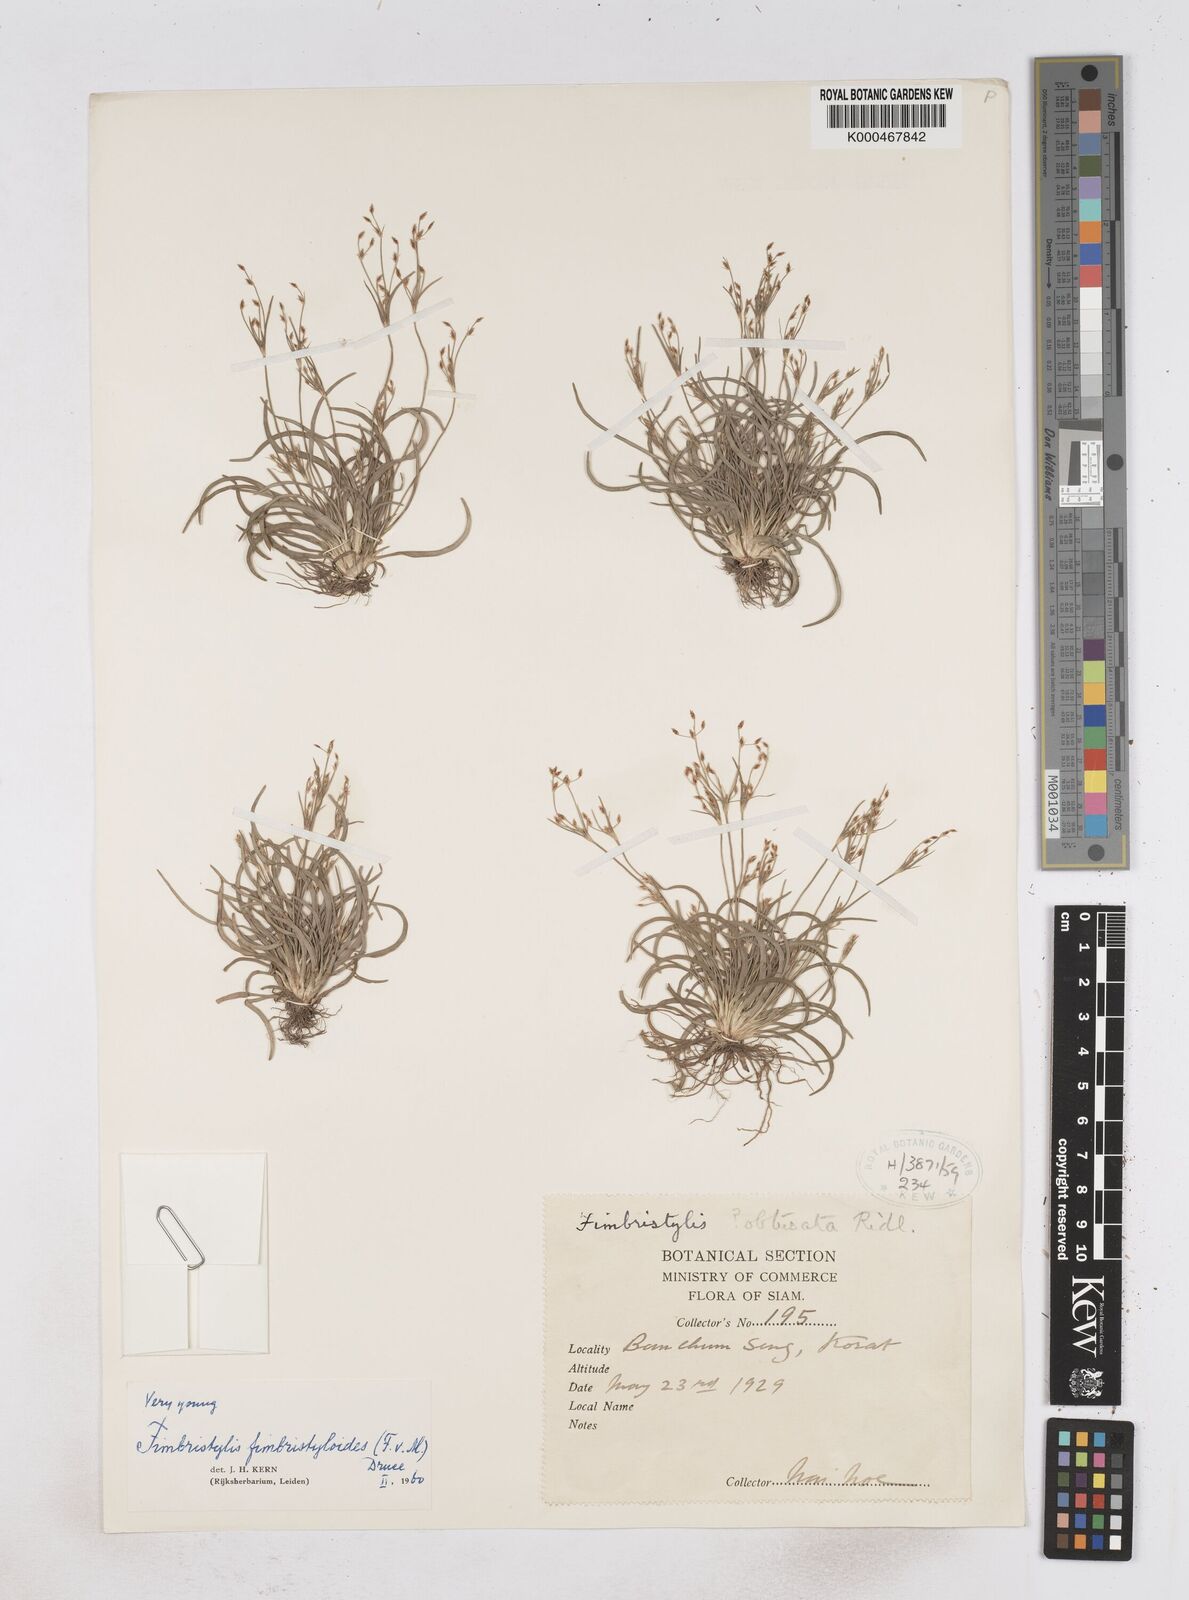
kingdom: Plantae
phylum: Tracheophyta
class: Liliopsida
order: Poales
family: Cyperaceae
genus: Fimbristylis
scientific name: Fimbristylis fimbristyloides
